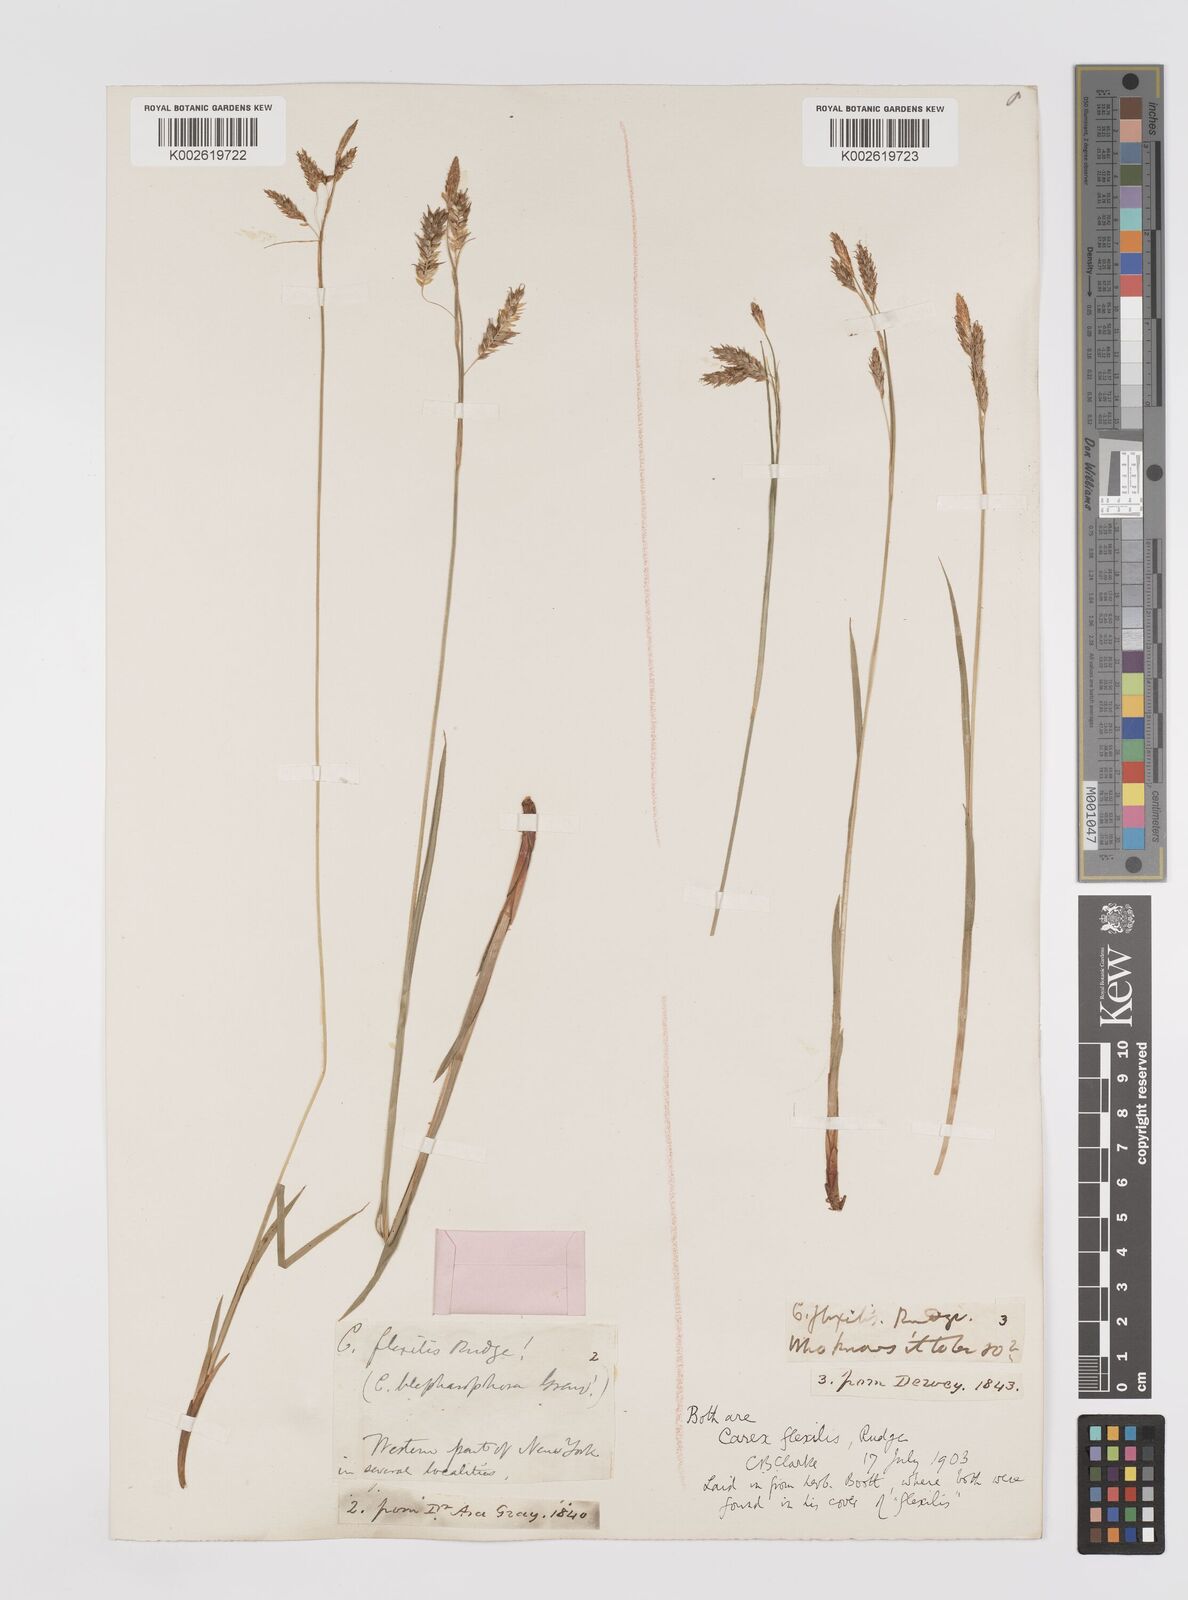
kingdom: Plantae
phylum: Tracheophyta
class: Liliopsida
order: Poales
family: Cyperaceae
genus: Carex
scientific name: Carex castanea
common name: Chestnut sedge
